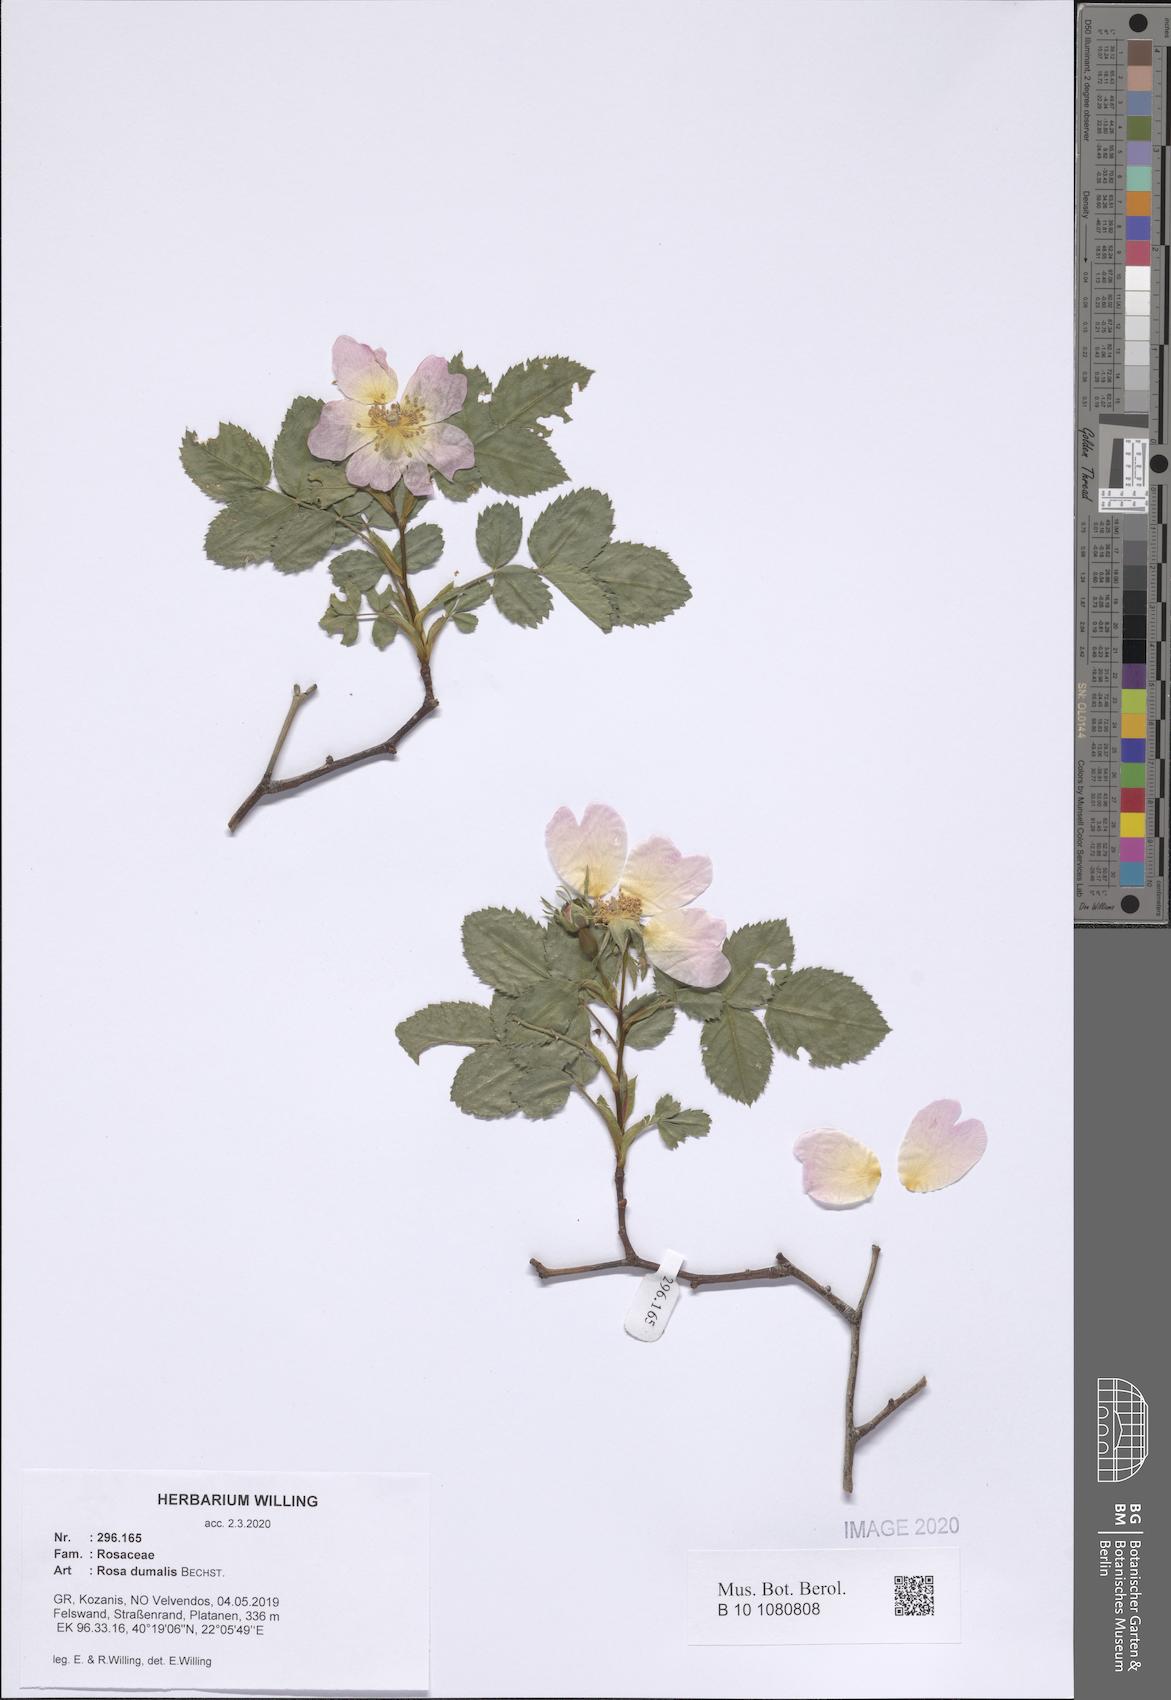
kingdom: Plantae
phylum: Tracheophyta
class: Magnoliopsida
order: Rosales
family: Rosaceae
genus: Rosa
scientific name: Rosa dumalis
